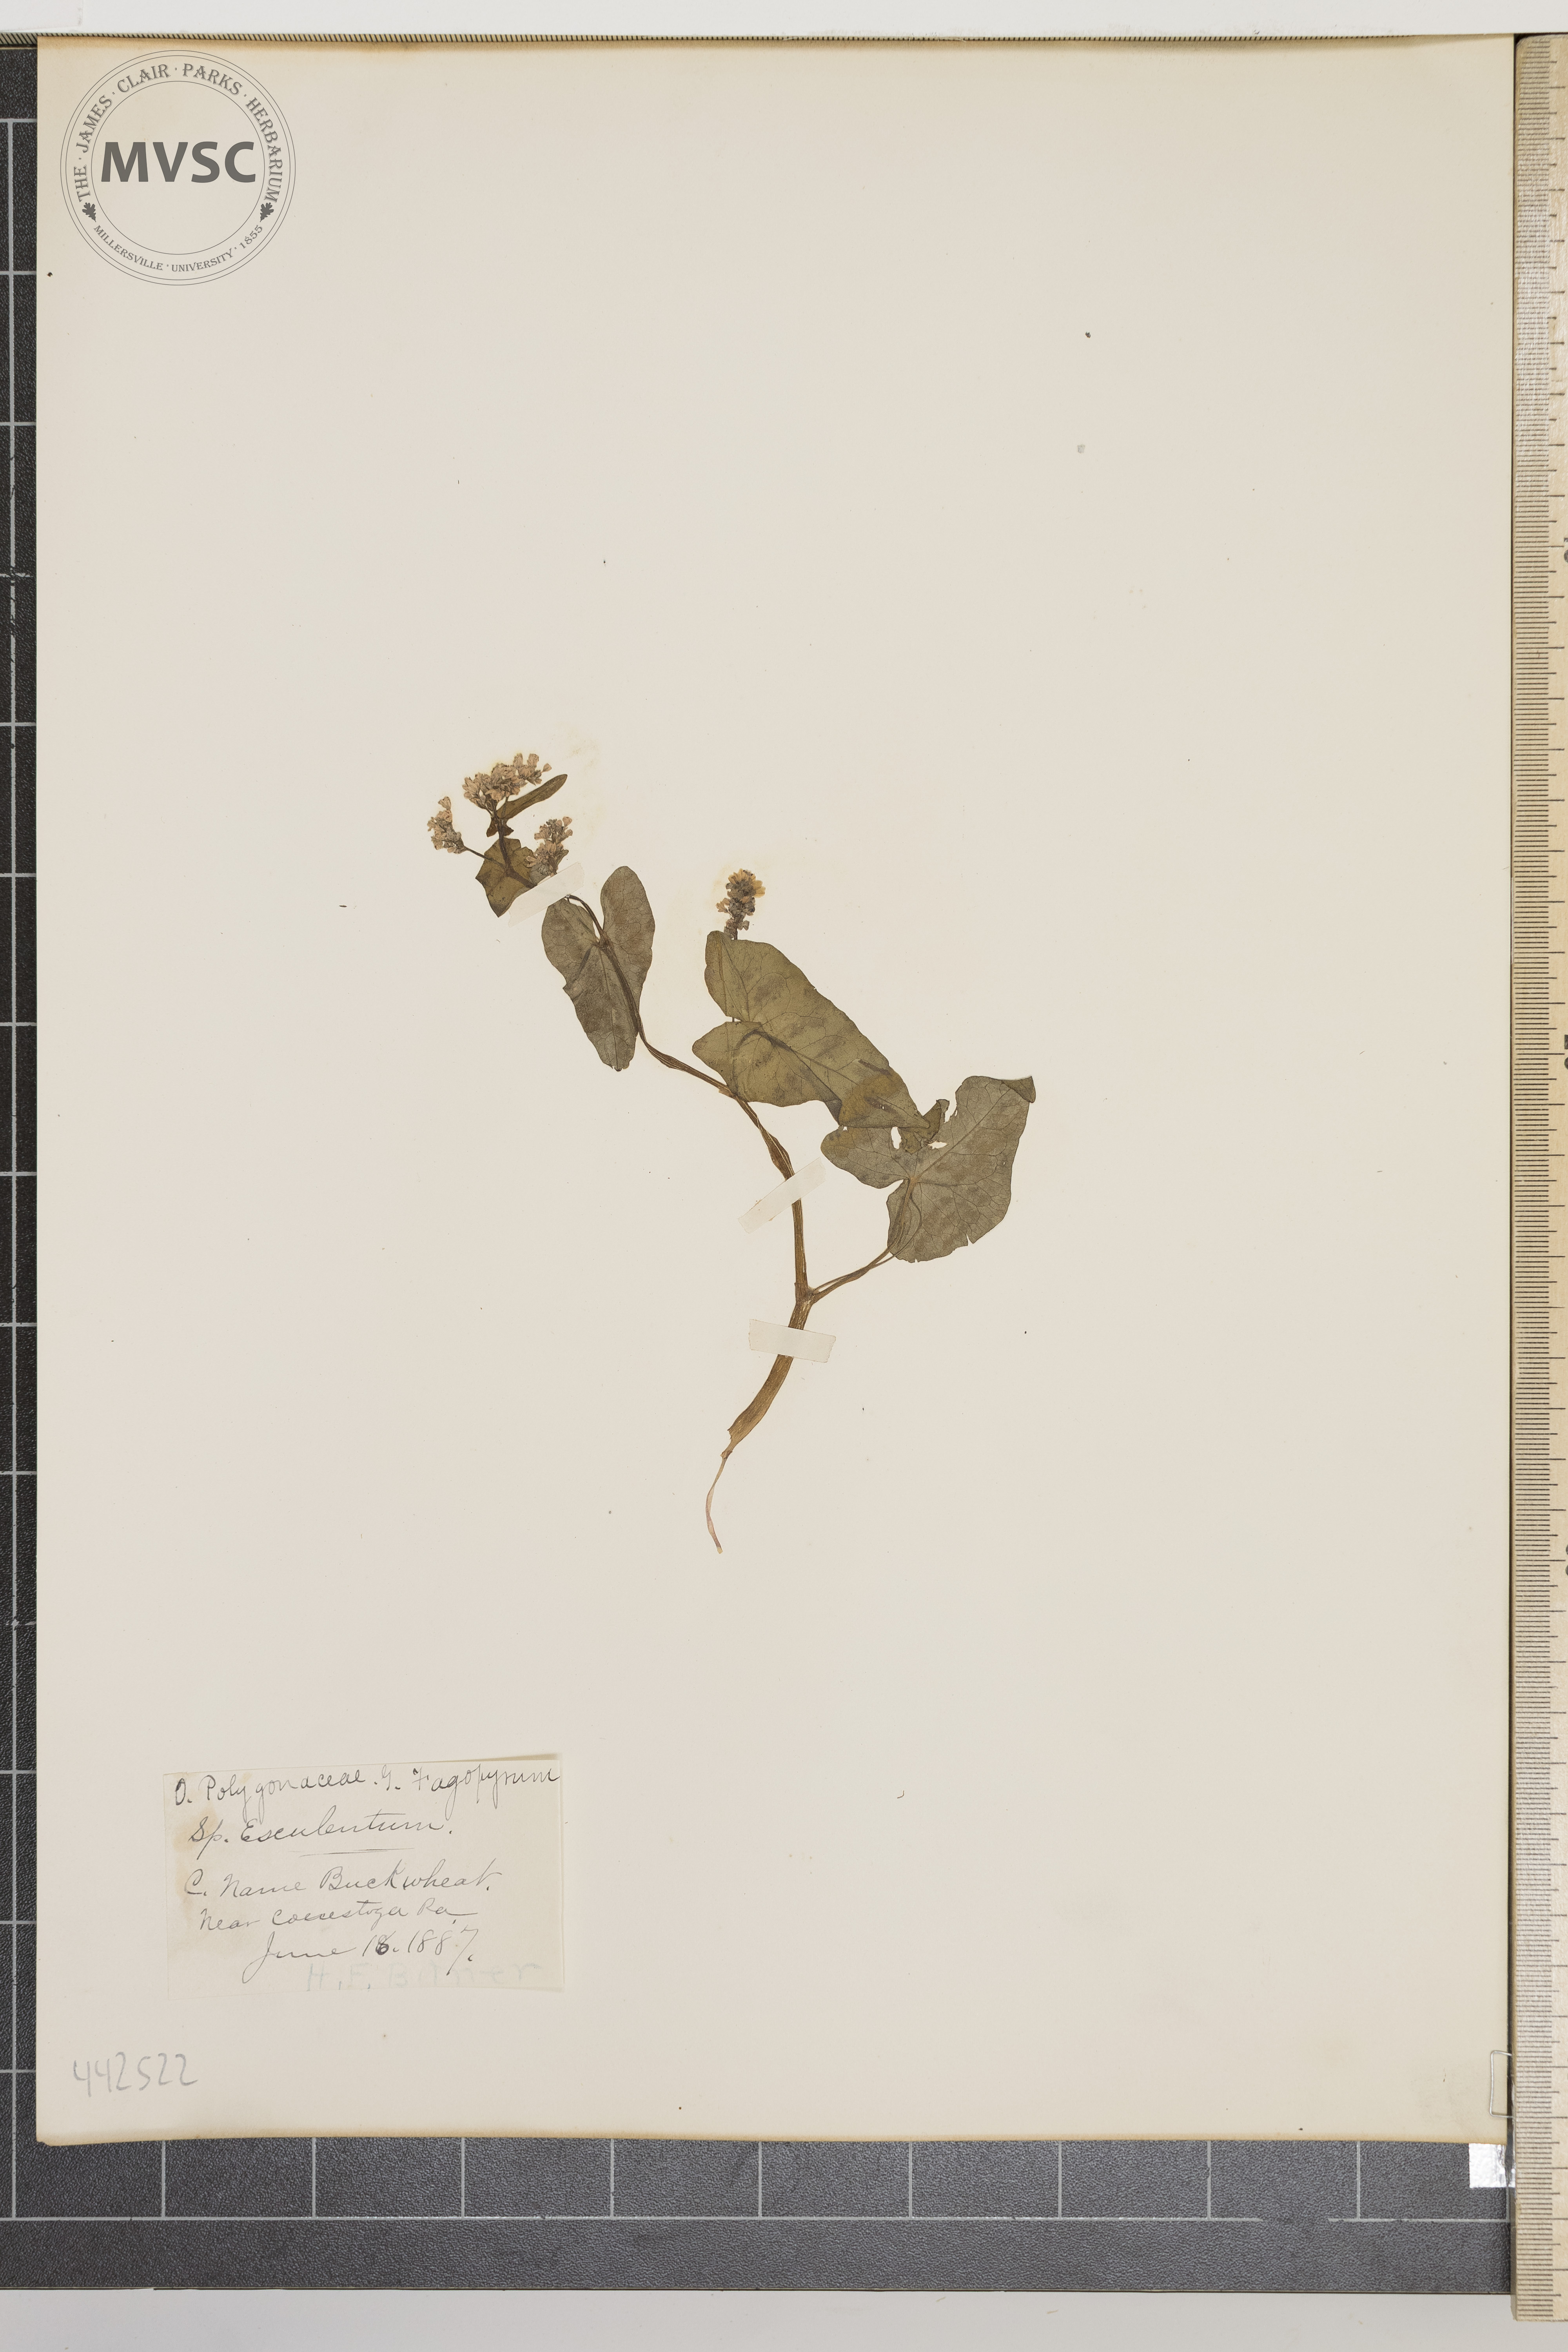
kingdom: Plantae
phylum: Tracheophyta
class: Magnoliopsida
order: Caryophyllales
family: Polygonaceae
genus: Fagopyrum
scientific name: Fagopyrum esculentum
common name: Buckwheat
